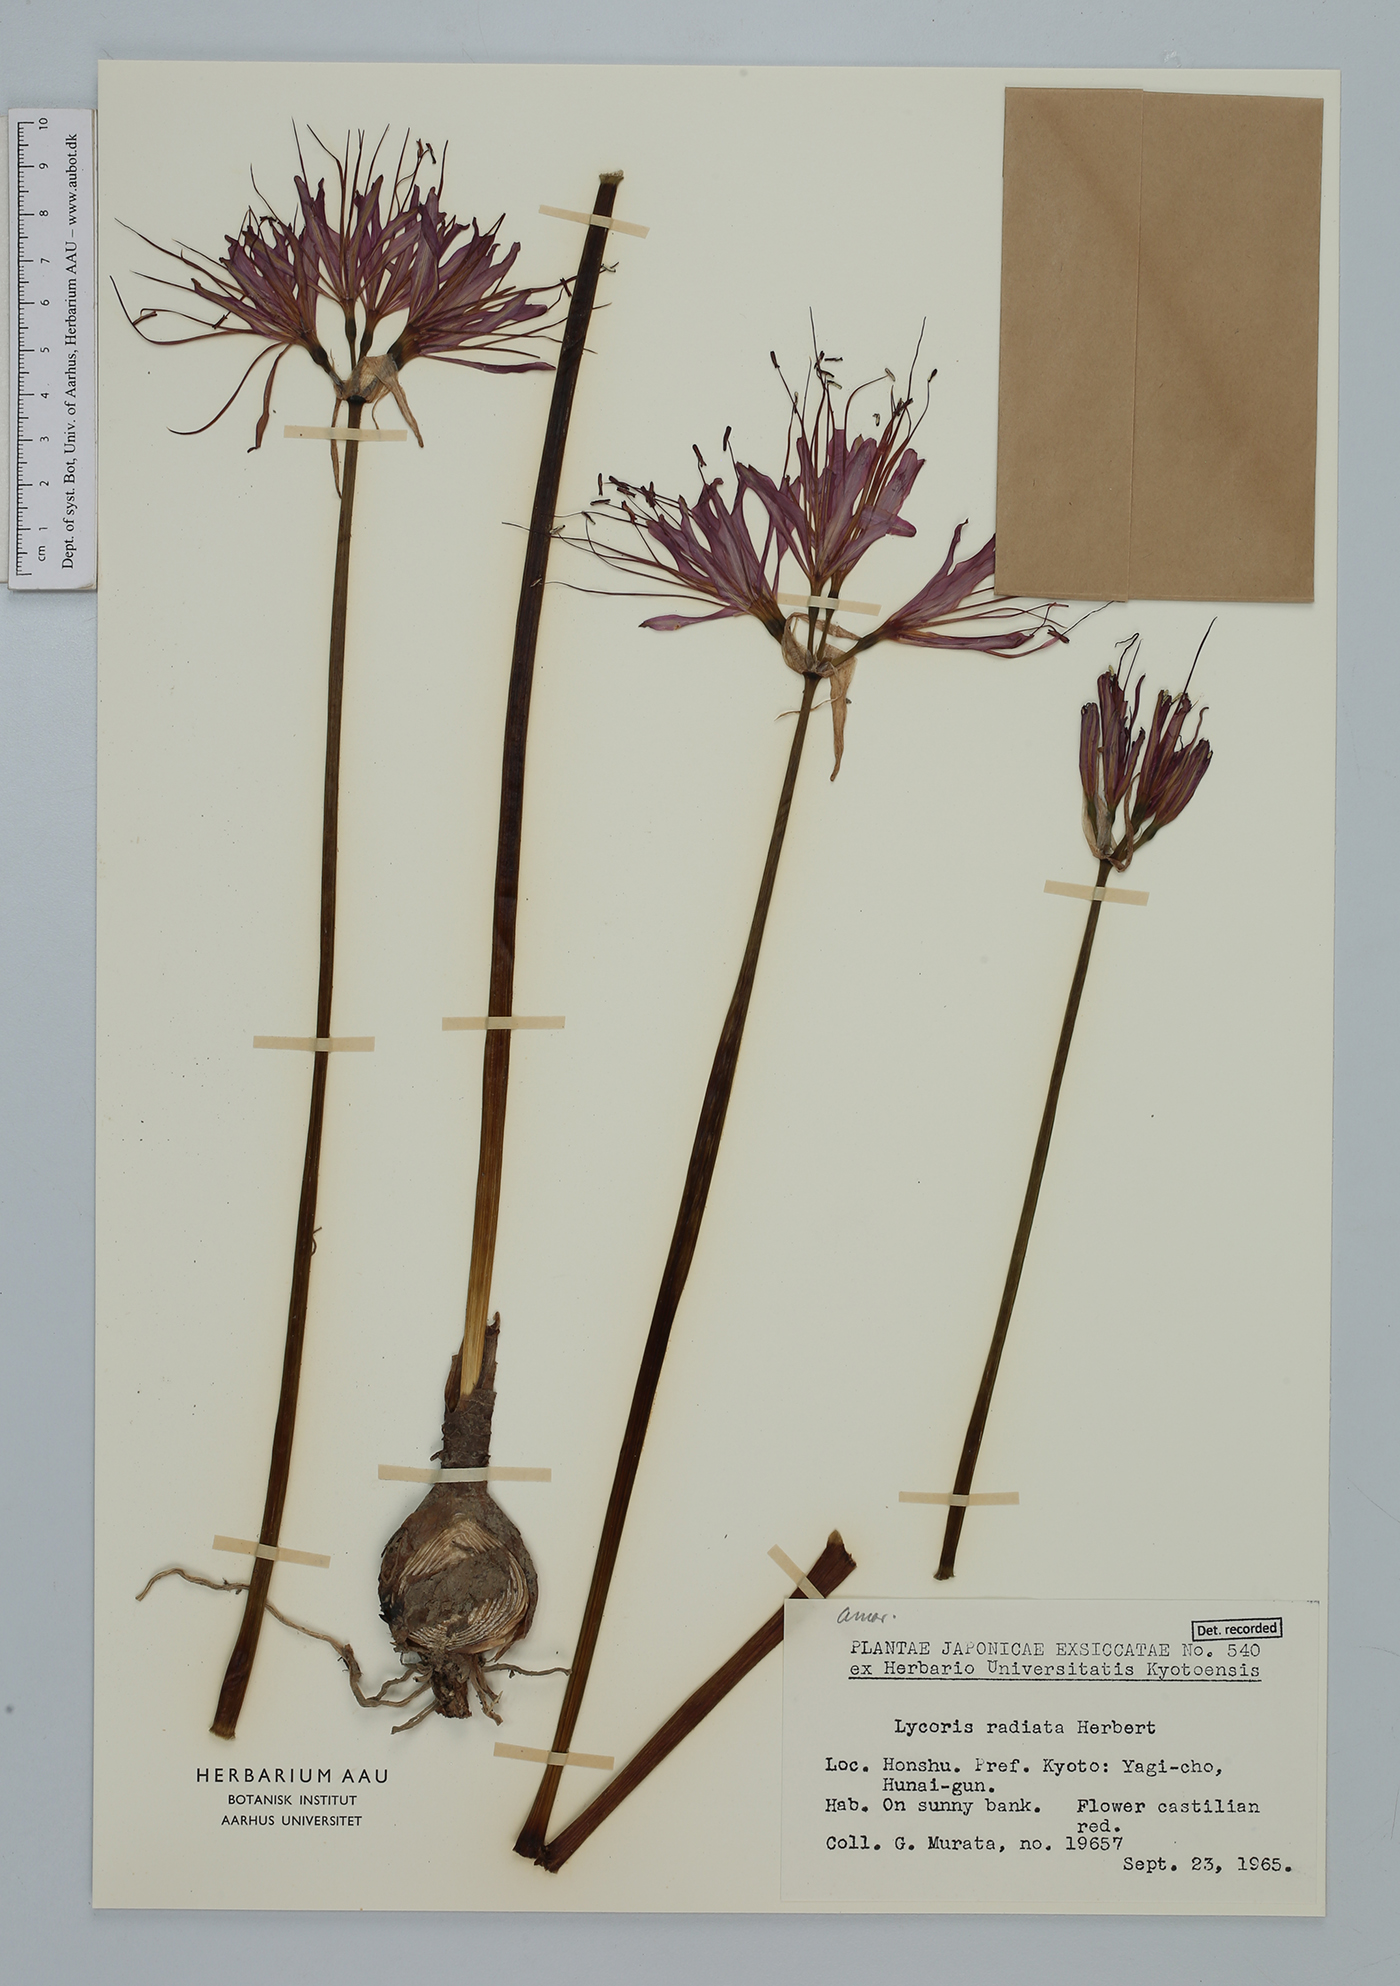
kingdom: Plantae
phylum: Tracheophyta
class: Liliopsida
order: Asparagales
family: Amaryllidaceae
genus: Lycoris
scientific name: Lycoris radiata
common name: Red spider lily
